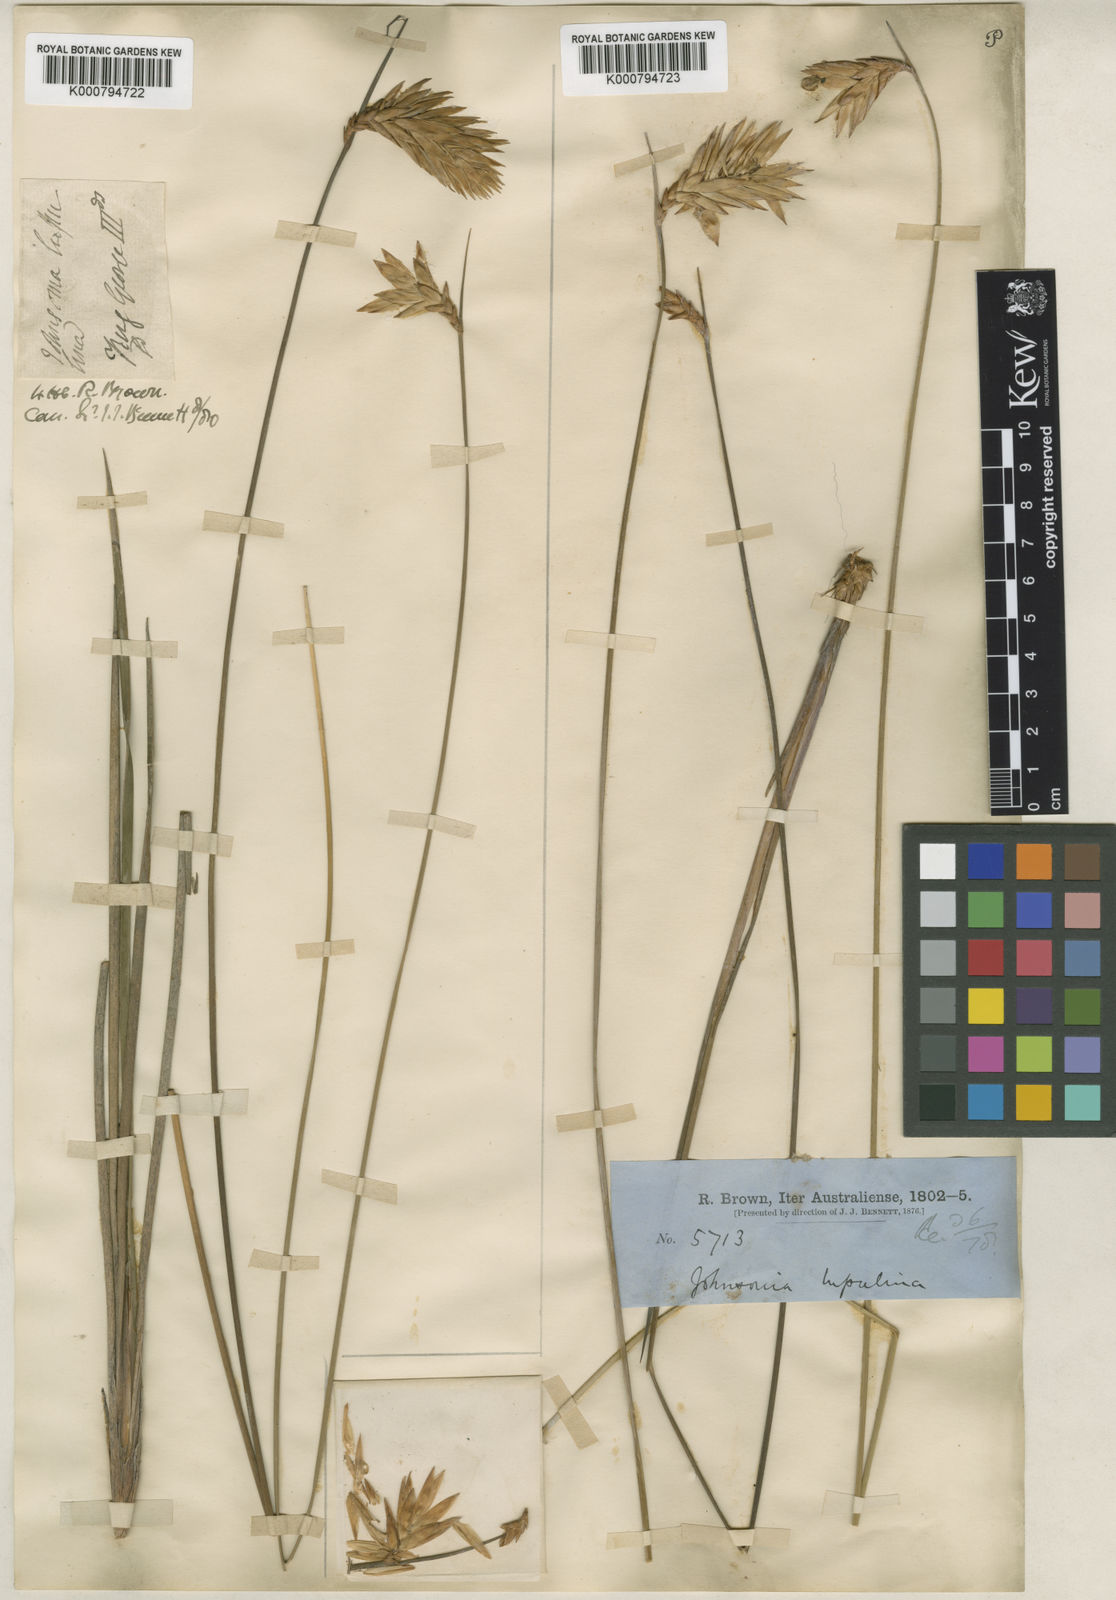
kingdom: Plantae
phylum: Tracheophyta
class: Liliopsida
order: Asparagales
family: Asphodelaceae
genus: Johnsonia
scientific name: Johnsonia lupulina
